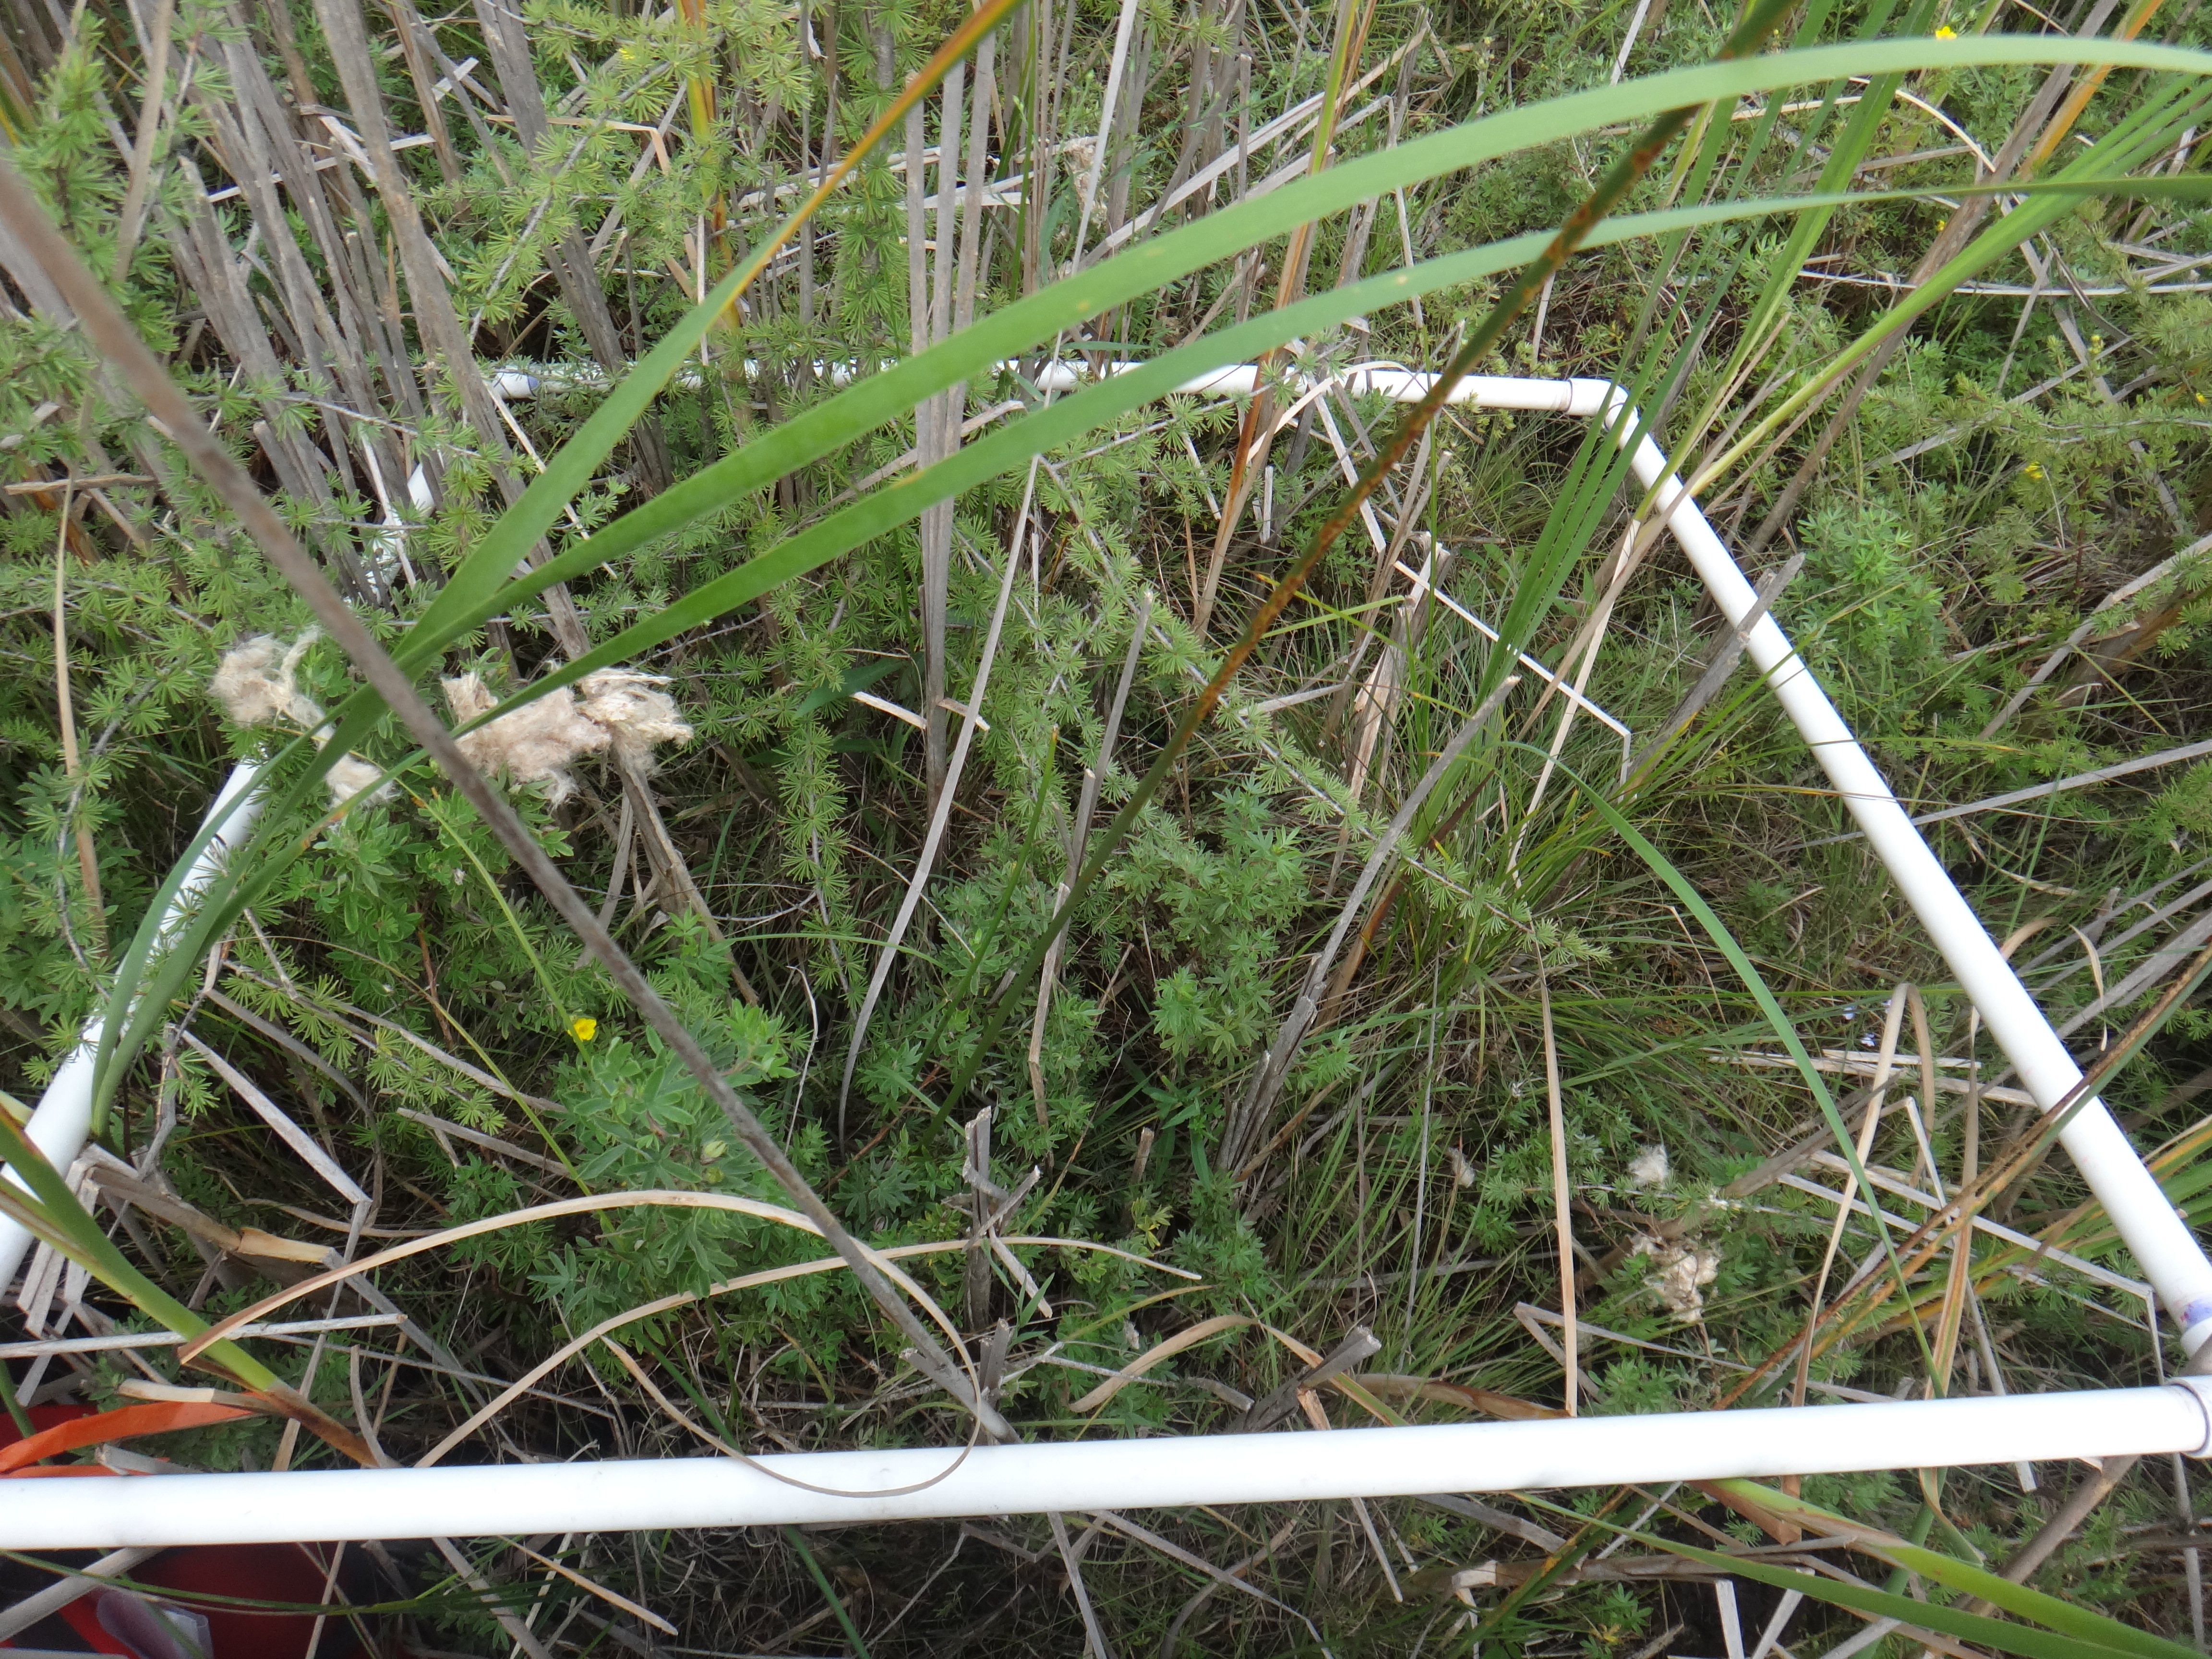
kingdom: Plantae
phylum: Tracheophyta
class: Pinopsida
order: Pinales
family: Pinaceae
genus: Larix
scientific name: Larix laricina
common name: American larch
